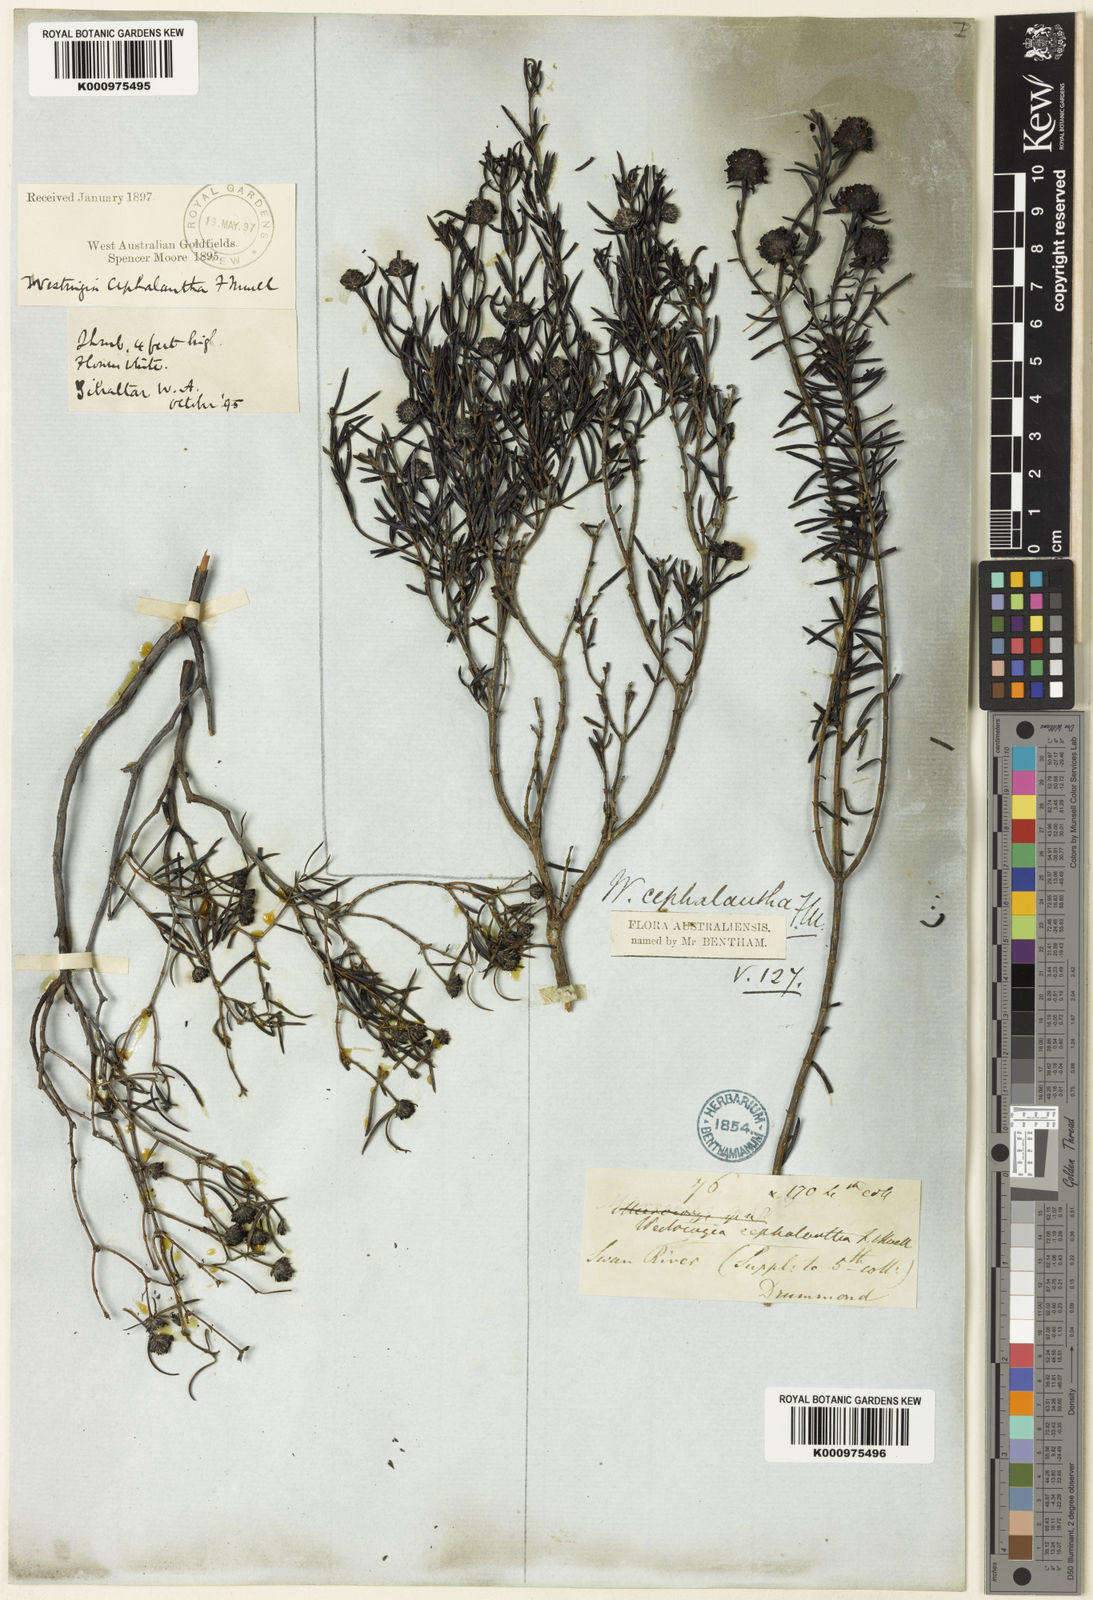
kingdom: Plantae
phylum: Tracheophyta
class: Magnoliopsida
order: Lamiales
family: Lamiaceae
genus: Westringia
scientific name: Westringia cephalantha
